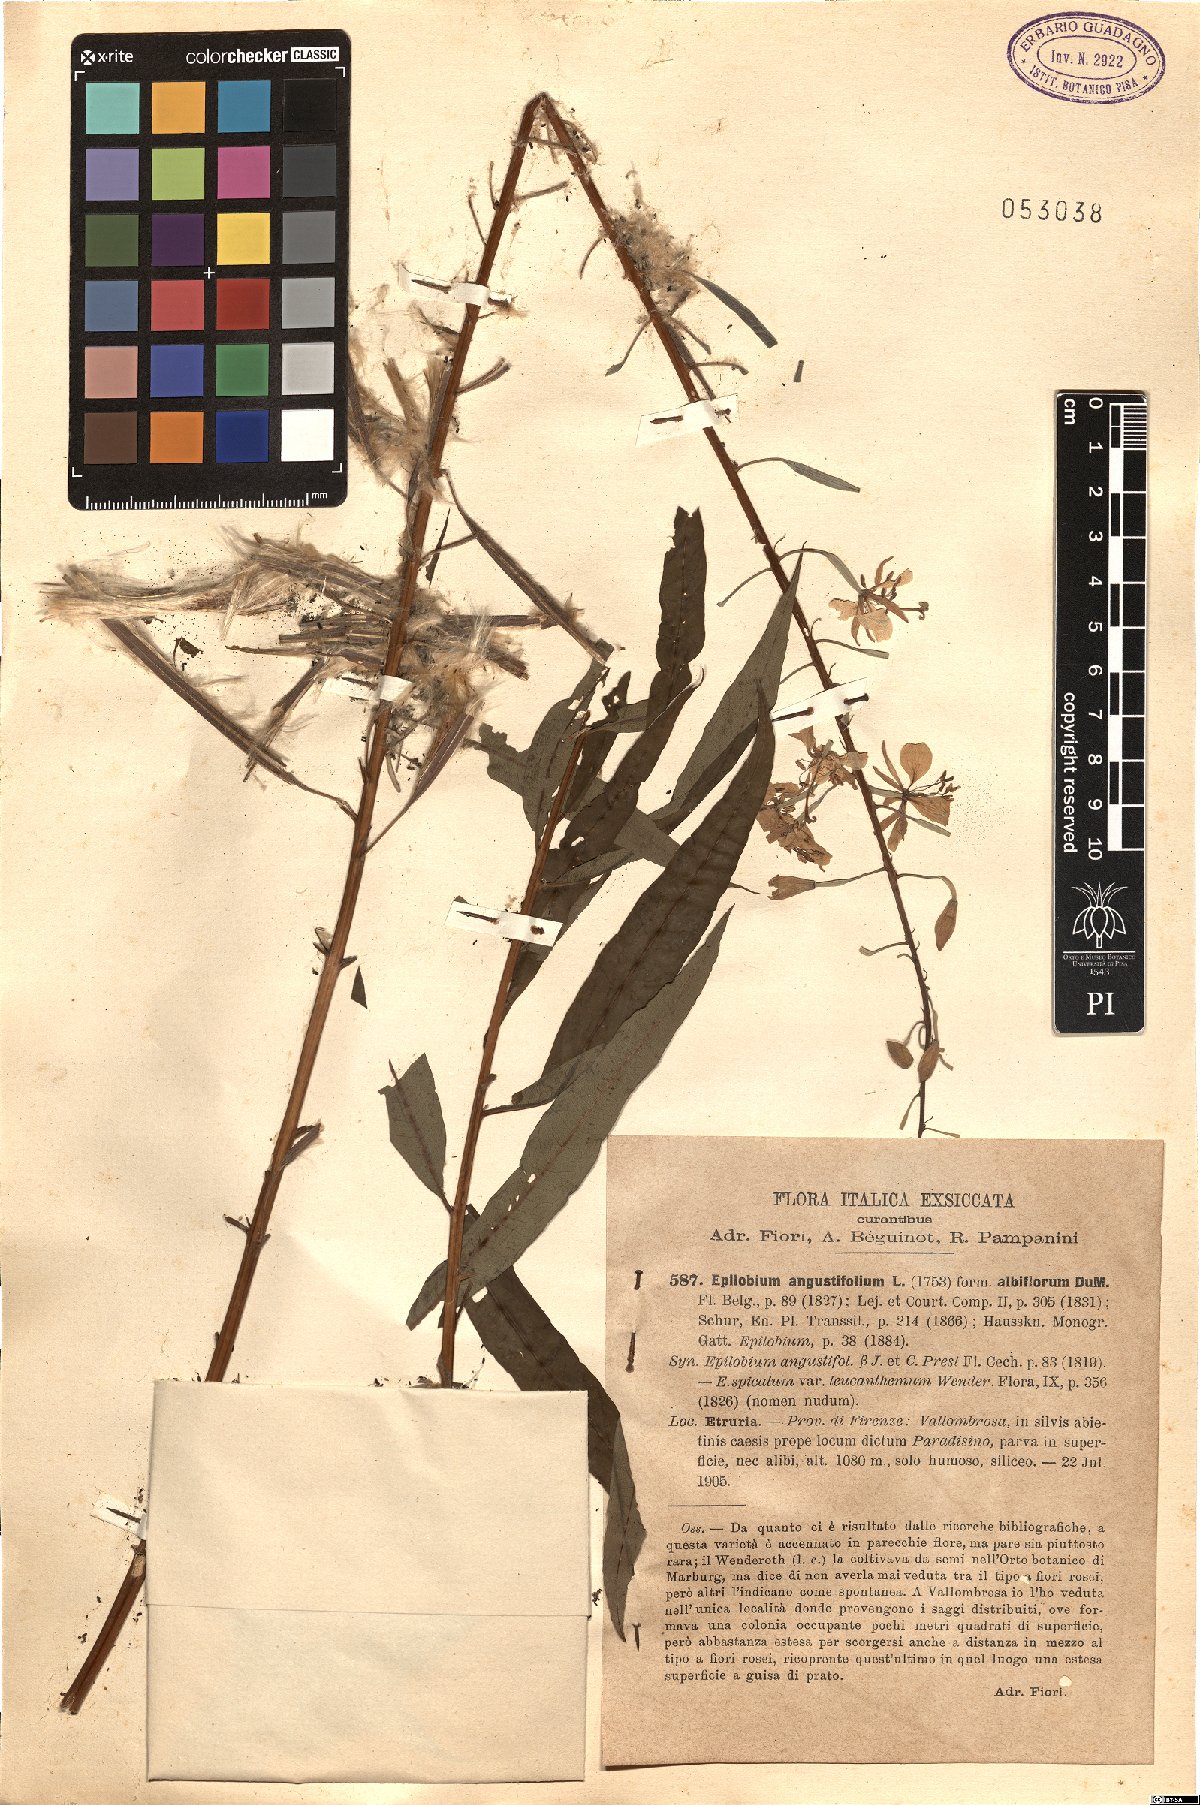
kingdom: Plantae
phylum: Tracheophyta
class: Magnoliopsida
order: Myrtales
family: Onagraceae
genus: Chamaenerion
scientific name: Chamaenerion angustifolium
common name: Fireweed
